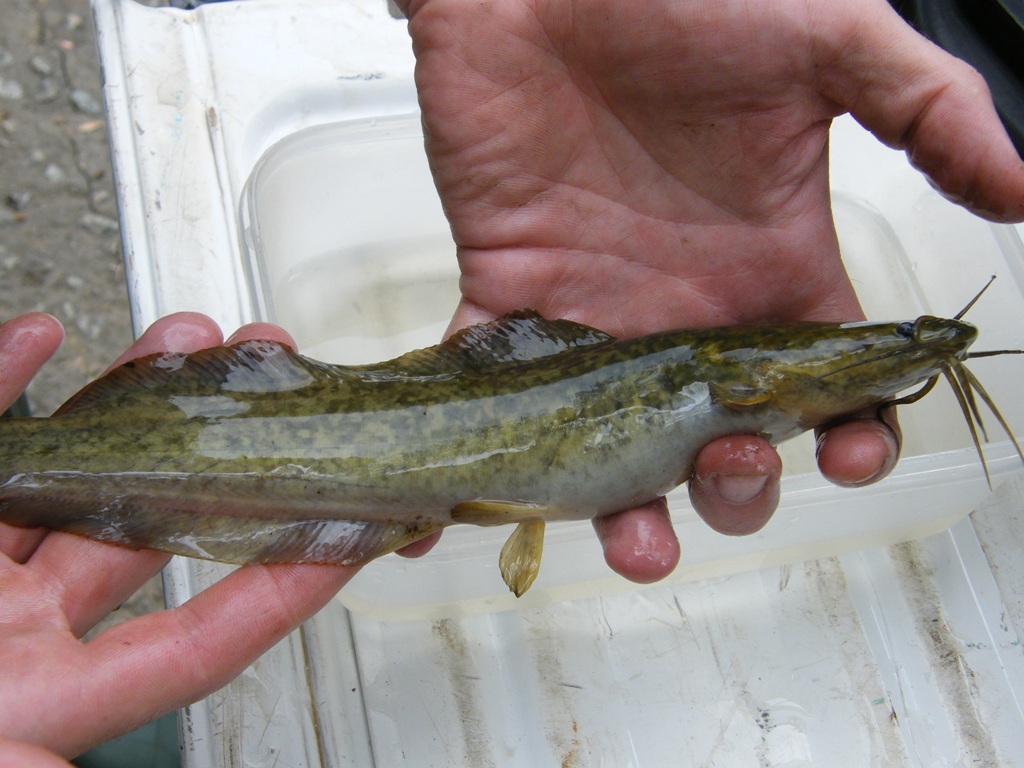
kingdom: Animalia
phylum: Chordata
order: Siluriformes
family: Clariidae
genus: Clarias
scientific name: Clarias gariepinus
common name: African catfish
